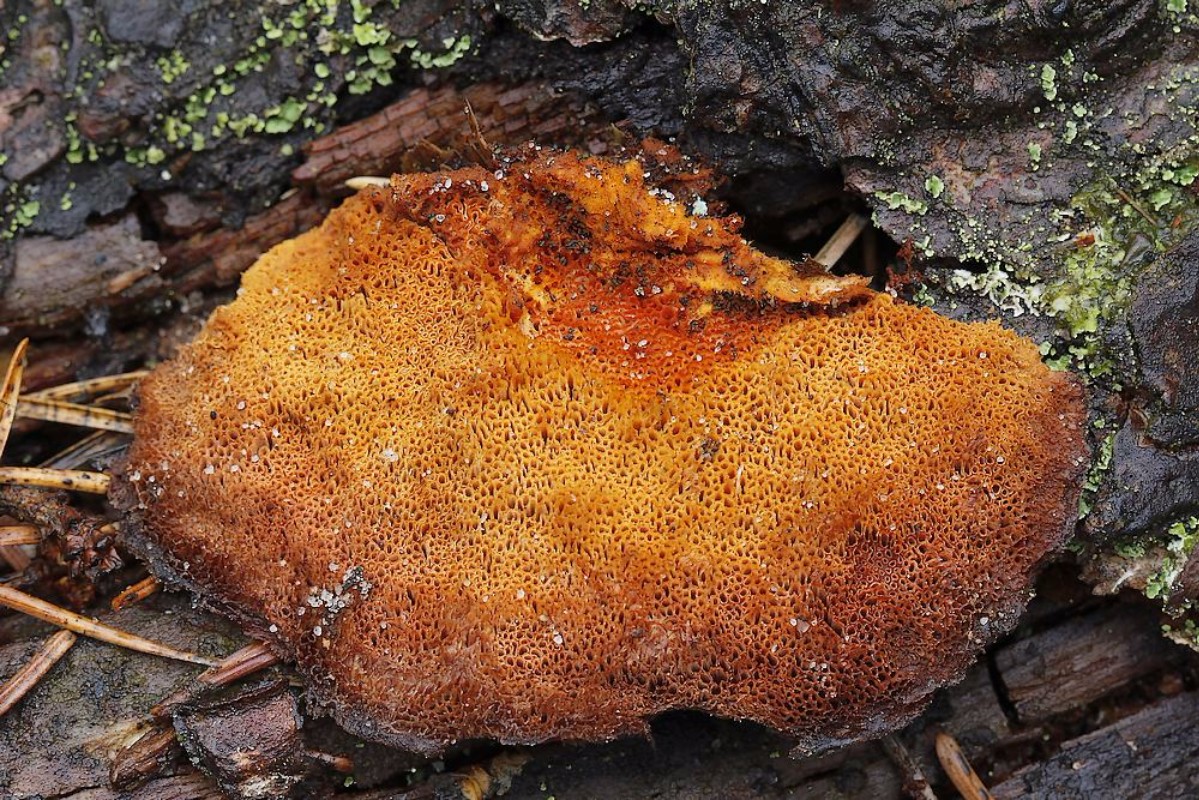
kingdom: Fungi
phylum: Basidiomycota
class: Agaricomycetes
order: Polyporales
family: Pycnoporellaceae
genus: Pycnoporellus
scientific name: Pycnoporellus fulgens
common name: flammeporesvamp
